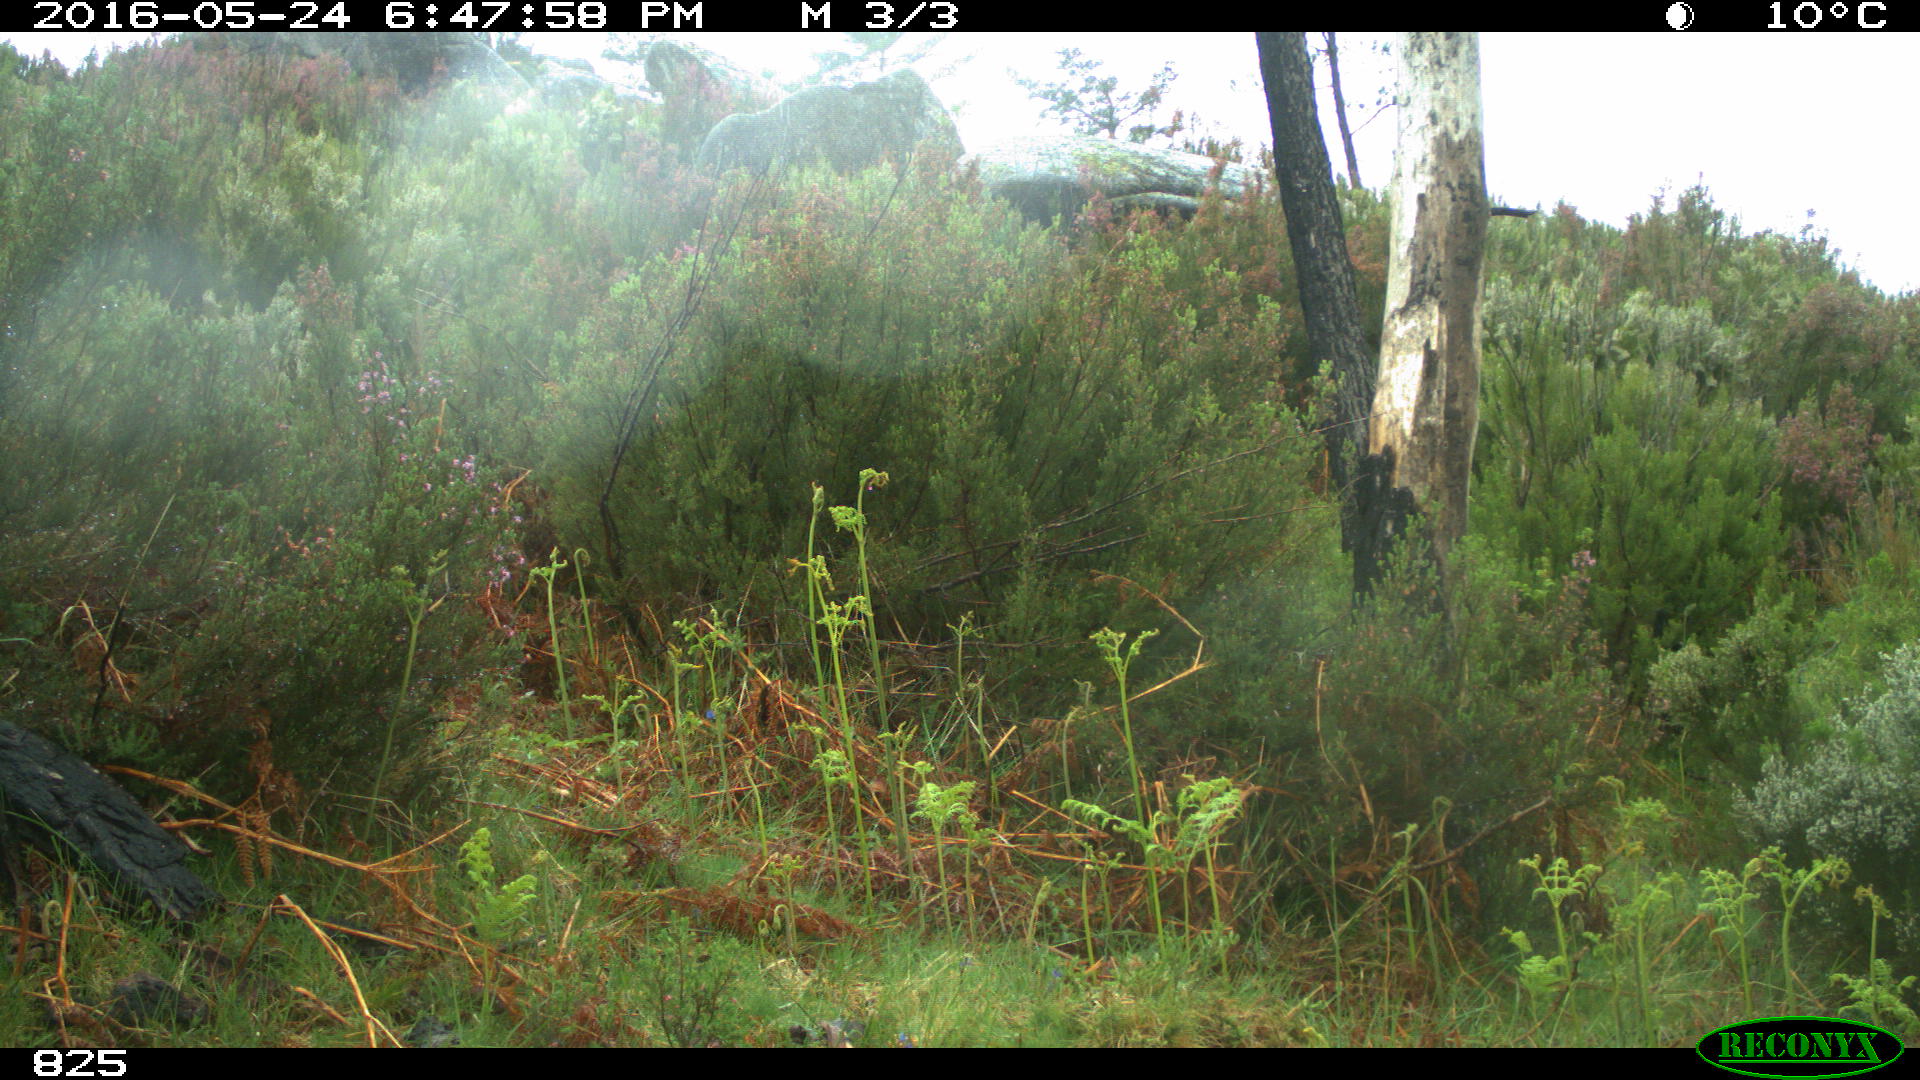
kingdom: Animalia
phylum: Chordata
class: Mammalia
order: Perissodactyla
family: Equidae
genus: Equus
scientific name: Equus caballus
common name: Horse
